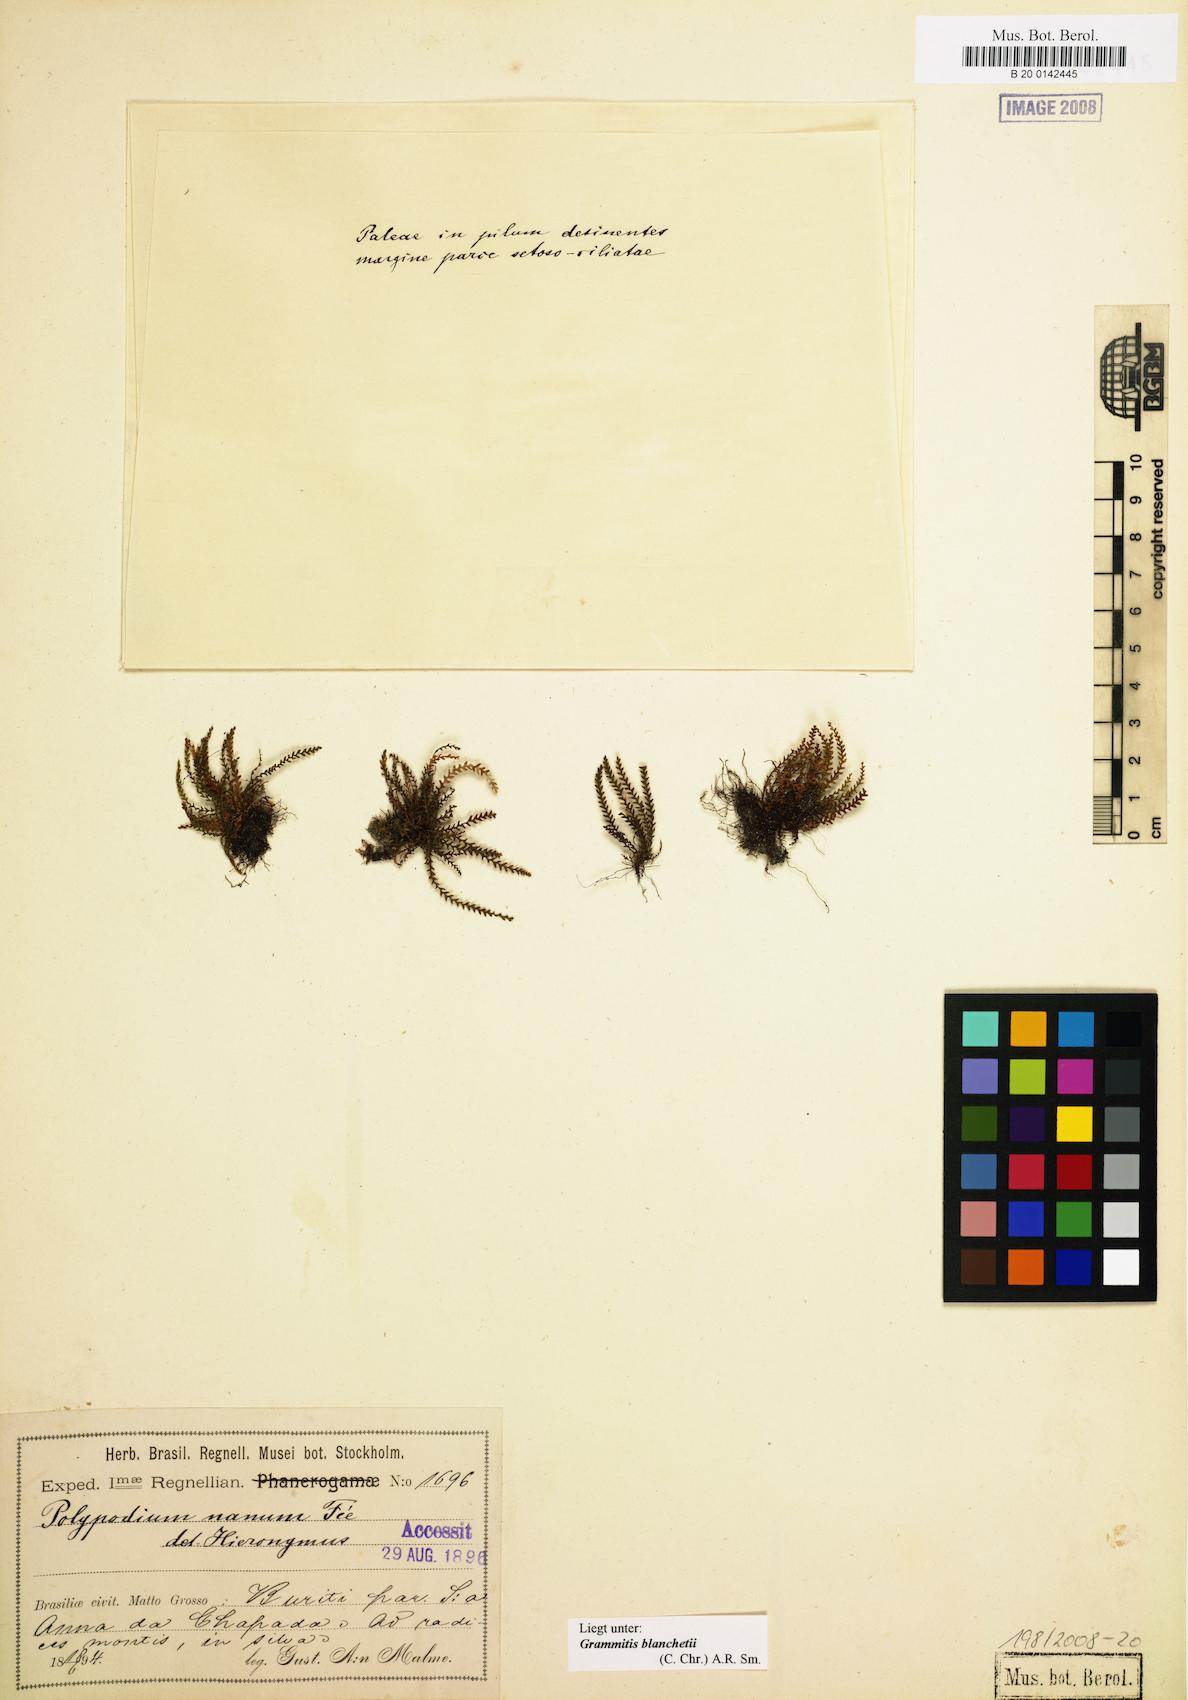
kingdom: Plantae
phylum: Tracheophyta
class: Polypodiopsida
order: Polypodiales
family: Polypodiaceae
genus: Moranopteris
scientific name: Moranopteris nana
